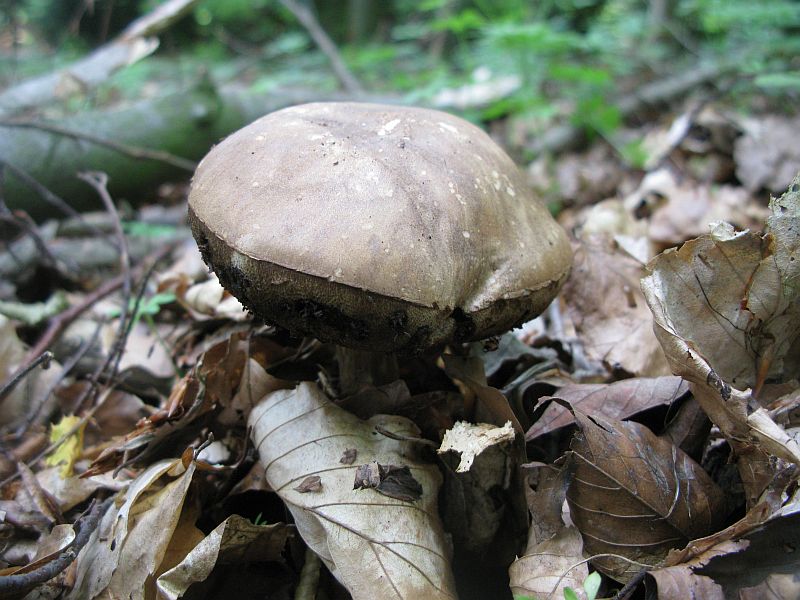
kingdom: Fungi
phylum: Basidiomycota
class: Agaricomycetes
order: Boletales
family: Boletaceae
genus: Leccinum
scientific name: Leccinum scabrum
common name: brun skælrørhat
